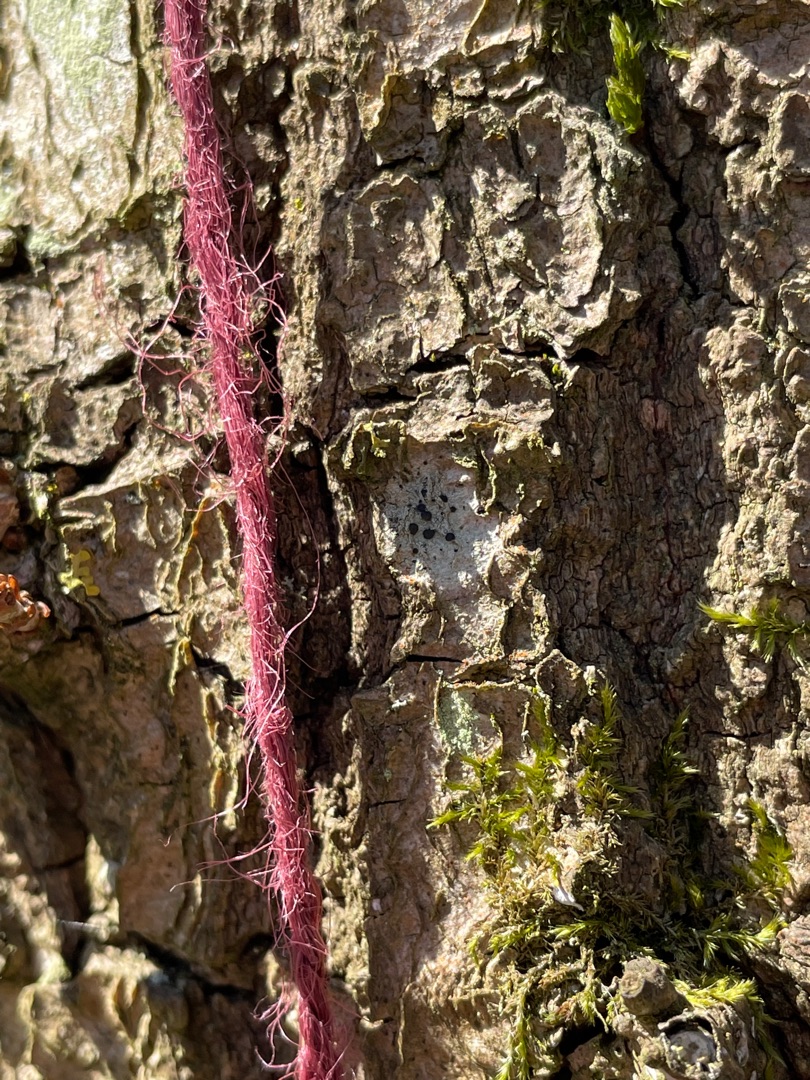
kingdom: Fungi
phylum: Ascomycota
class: Lecanoromycetes
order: Lecanorales
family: Lecanoraceae
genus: Lecidella
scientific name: Lecidella elaeochroma
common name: Grågrøn skivelav
